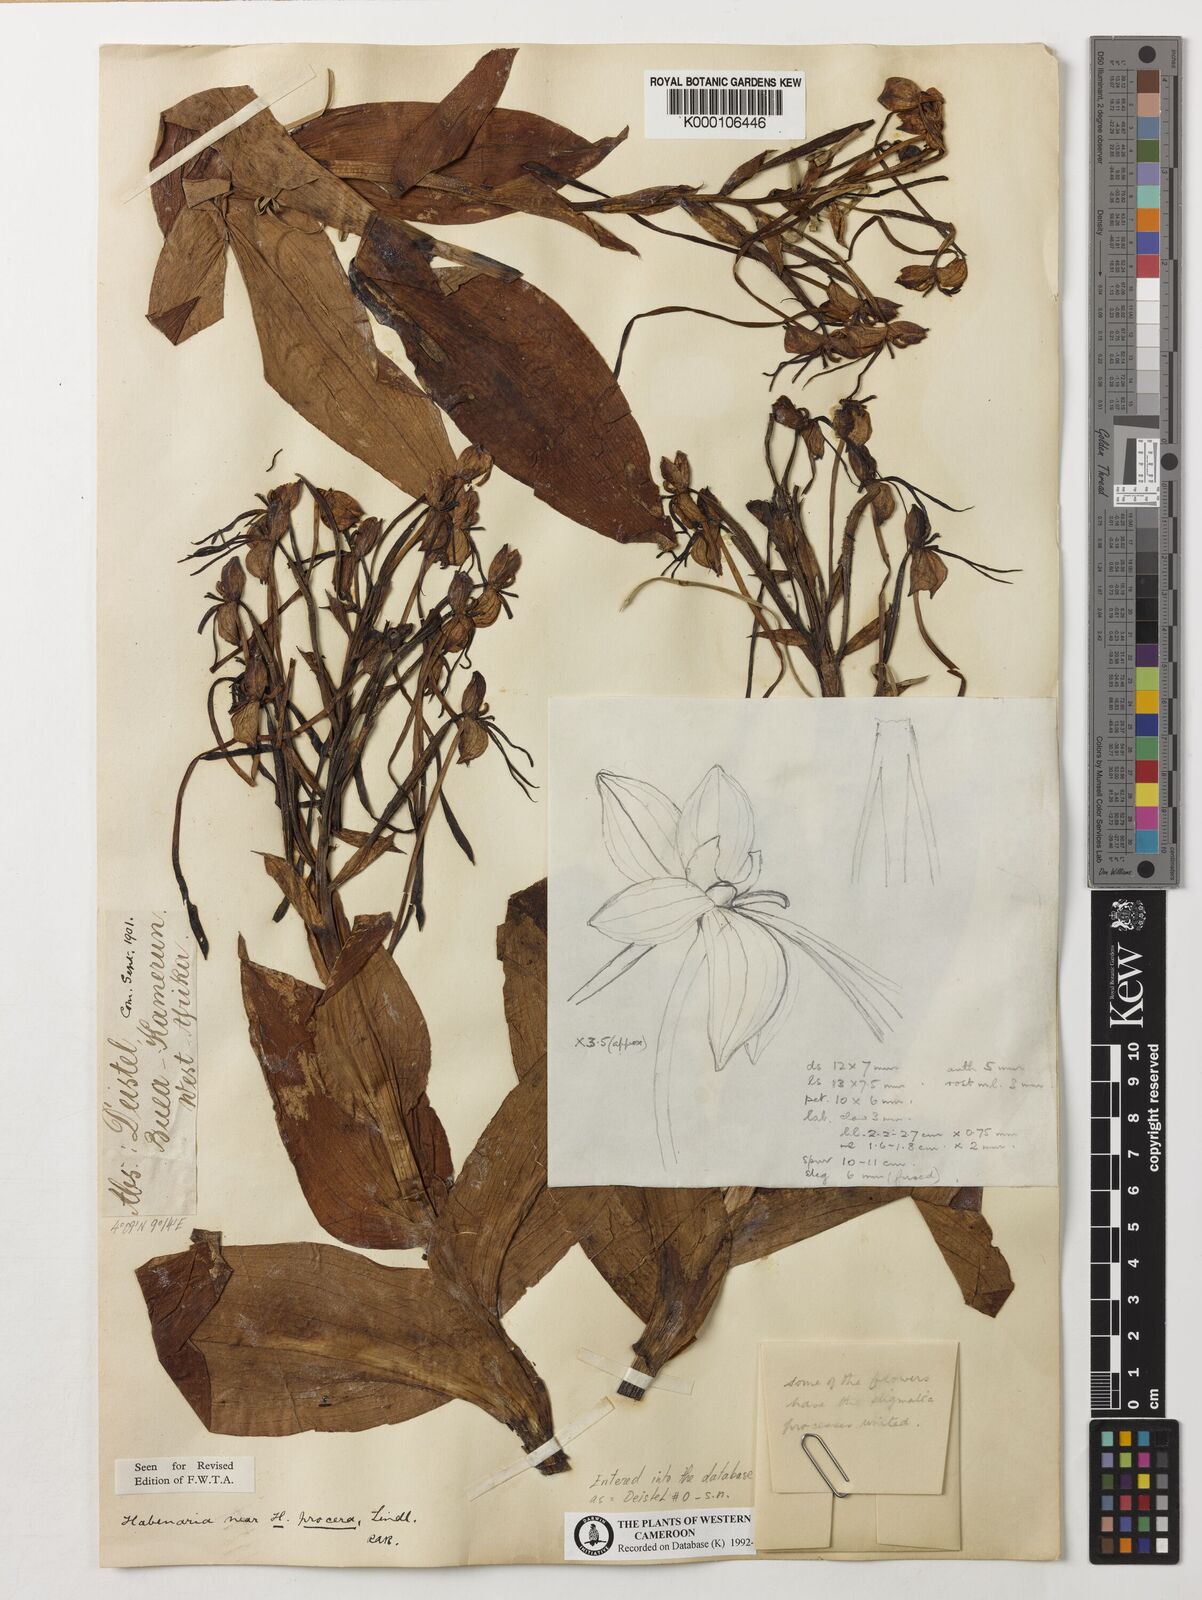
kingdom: Plantae
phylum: Tracheophyta
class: Liliopsida
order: Asparagales
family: Orchidaceae
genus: Habenaria
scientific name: Habenaria procera
